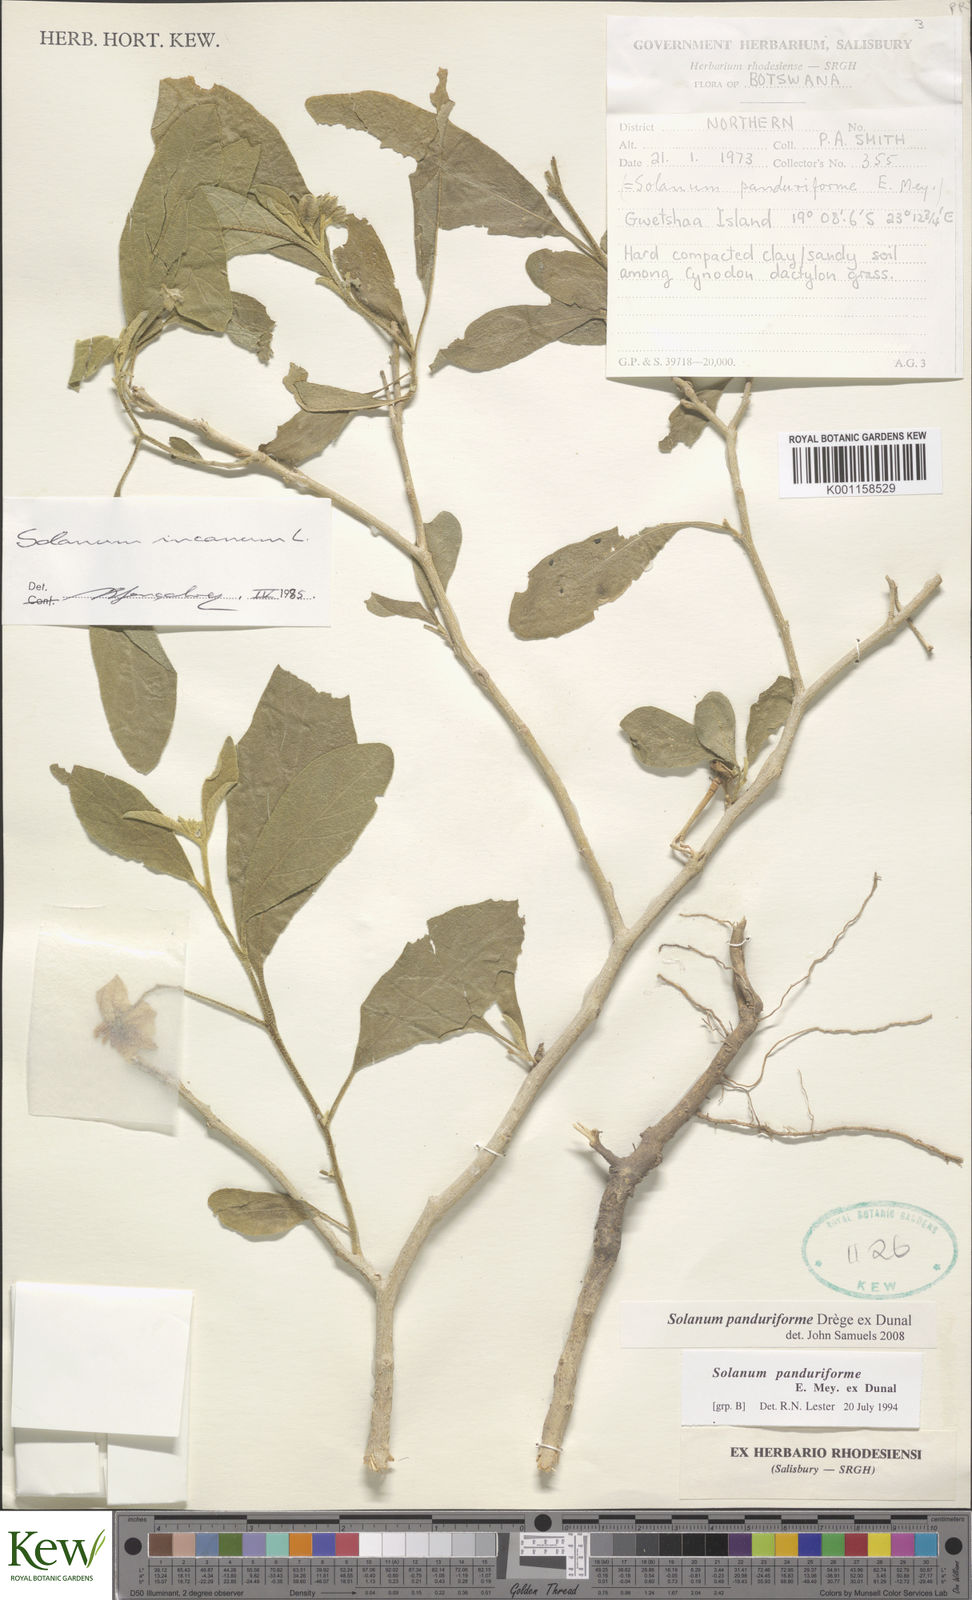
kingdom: Plantae
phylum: Tracheophyta
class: Magnoliopsida
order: Solanales
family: Solanaceae
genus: Solanum
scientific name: Solanum campylacanthum
